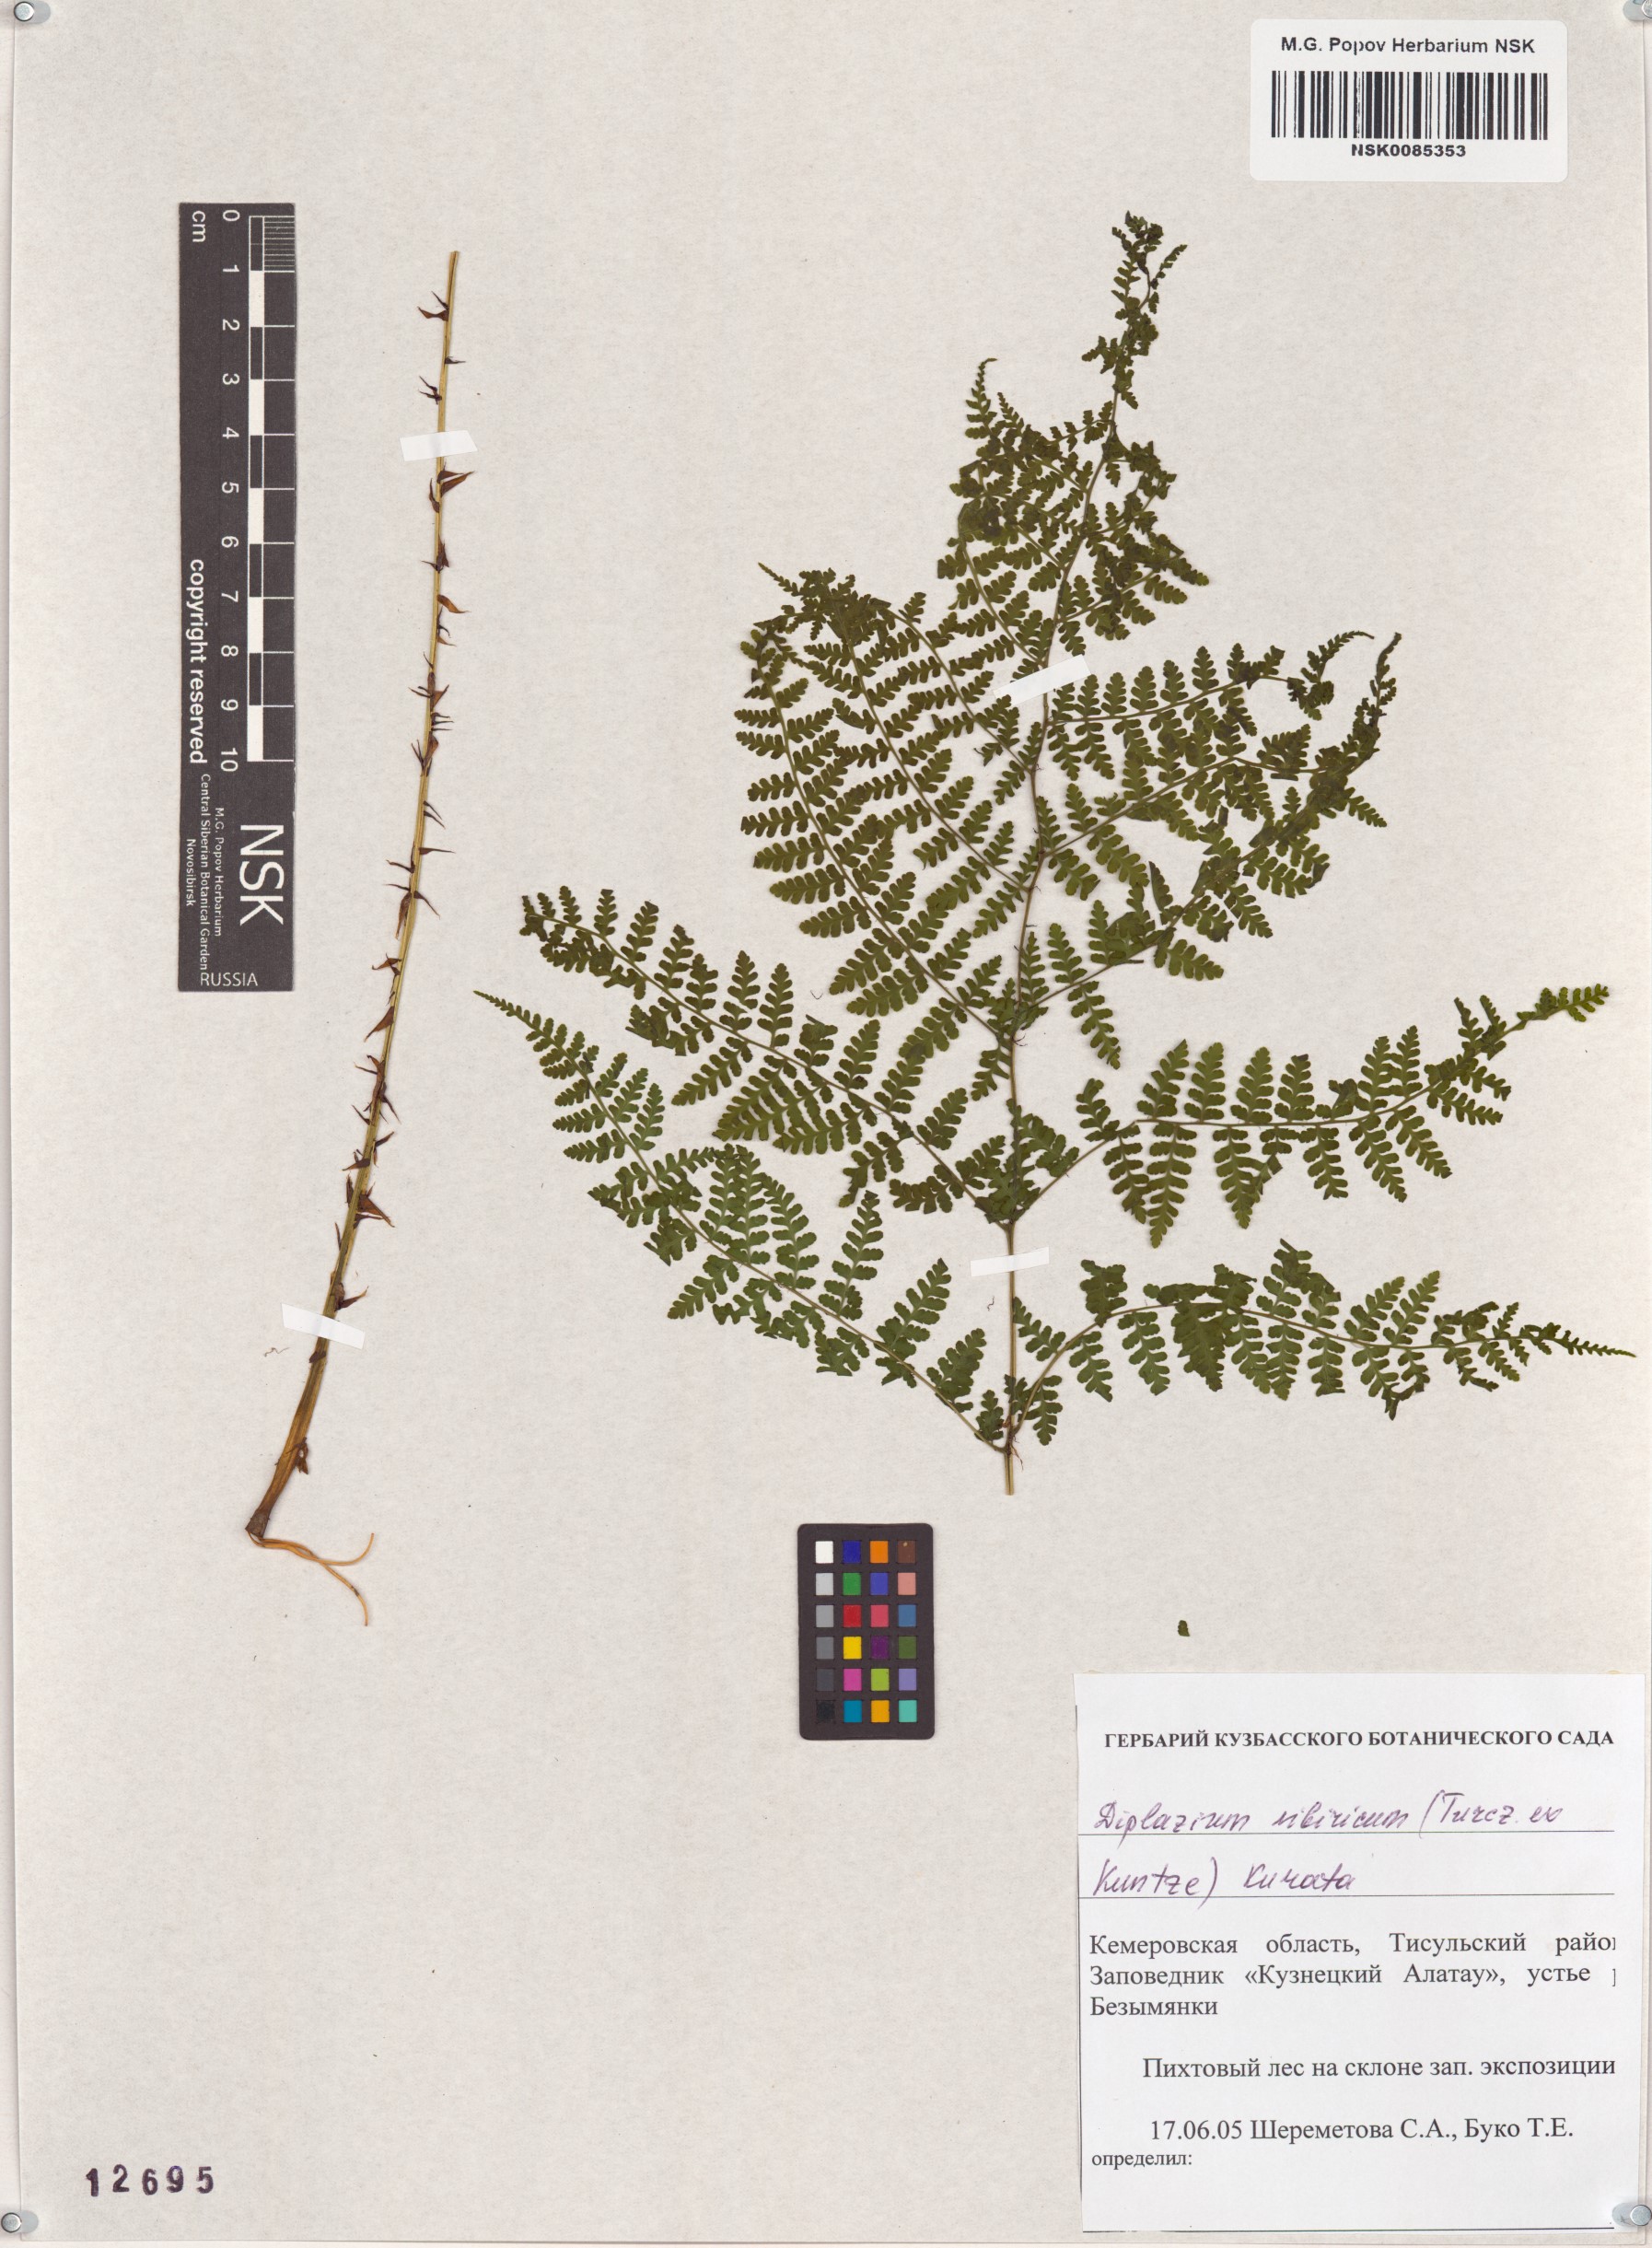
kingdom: Plantae
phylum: Tracheophyta
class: Polypodiopsida
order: Polypodiales
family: Athyriaceae
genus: Diplazium
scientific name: Diplazium sibiricum
